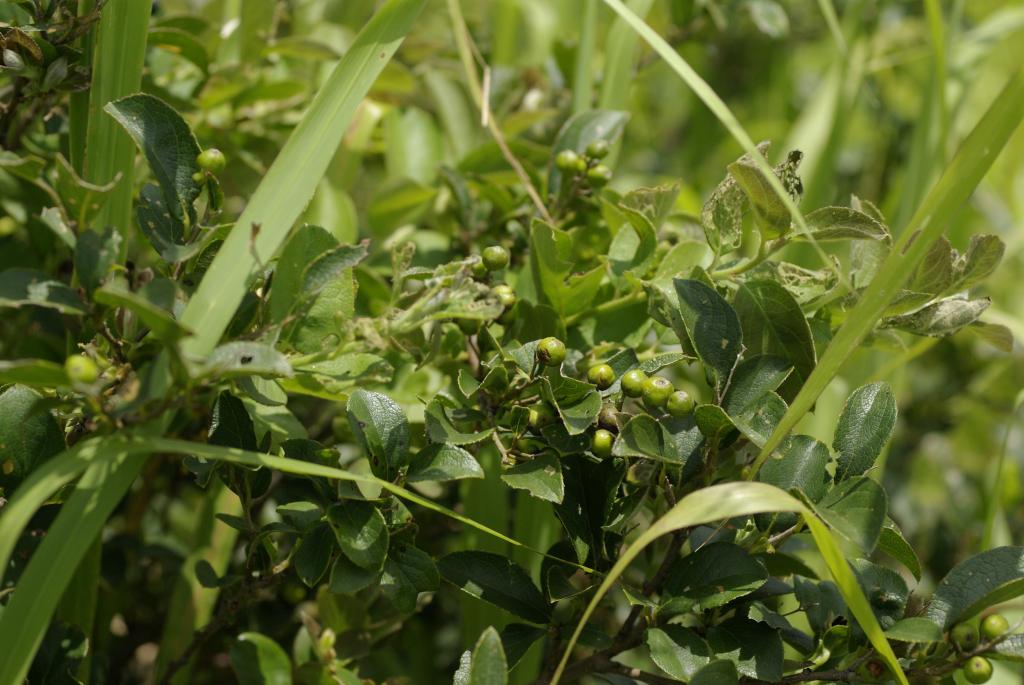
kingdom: Plantae
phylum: Tracheophyta
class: Magnoliopsida
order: Ericales
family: Symplocaceae
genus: Symplocos
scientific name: Symplocos paniculata
